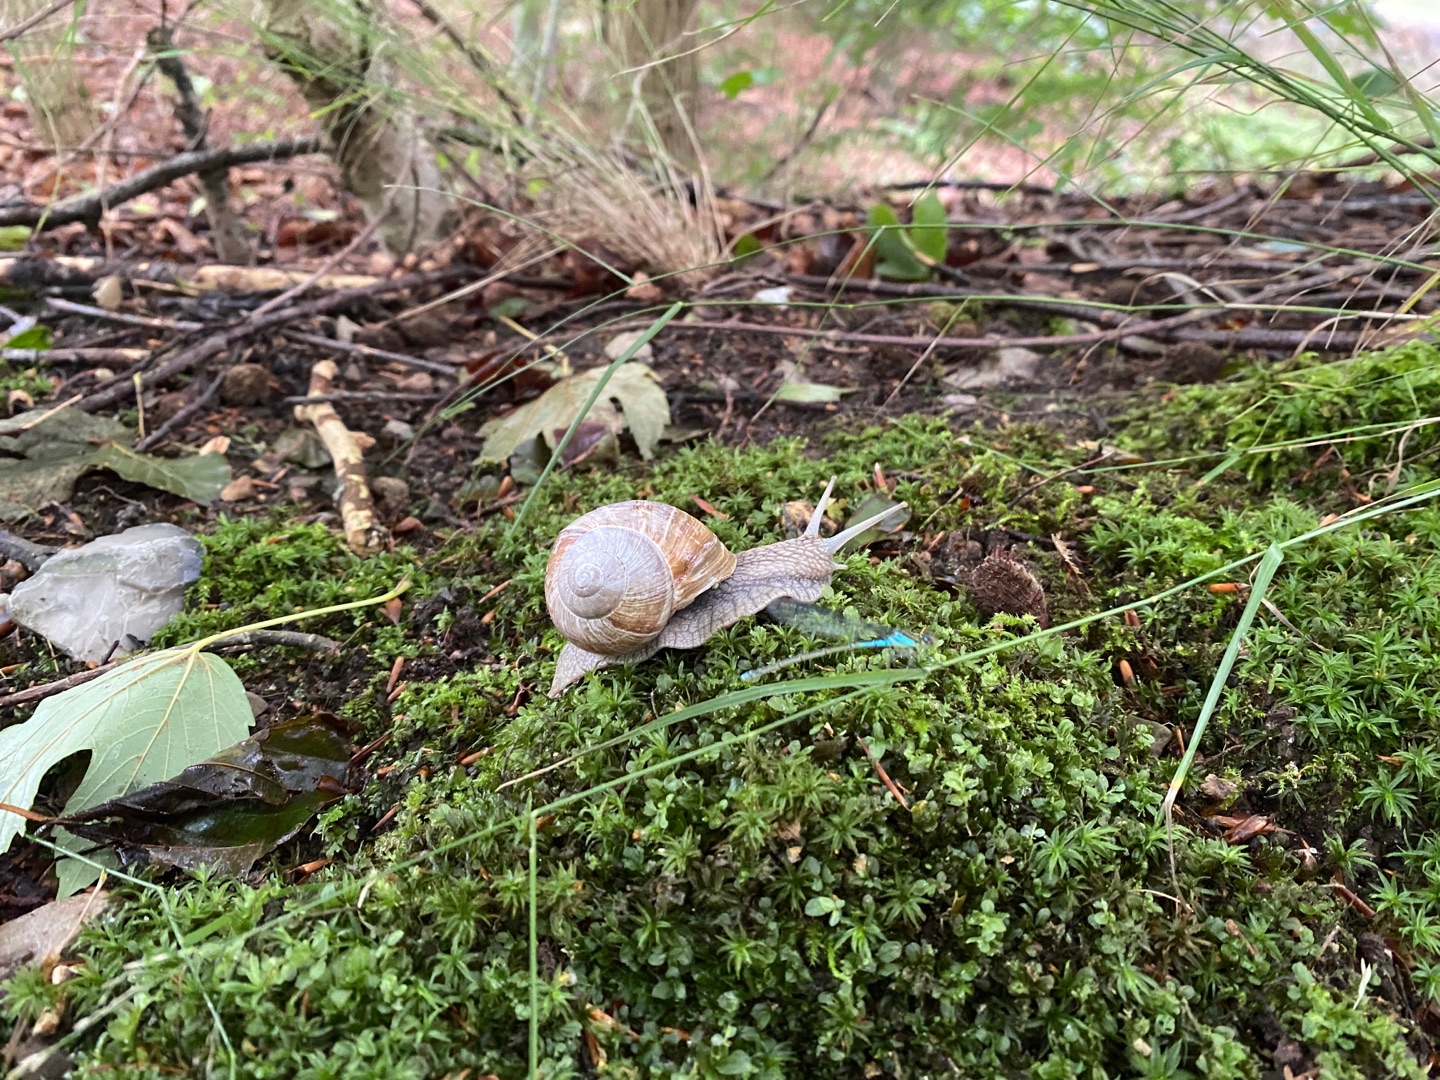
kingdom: Animalia
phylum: Mollusca
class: Gastropoda
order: Stylommatophora
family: Helicidae
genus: Helix
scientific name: Helix pomatia
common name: Vinbjergsnegl
